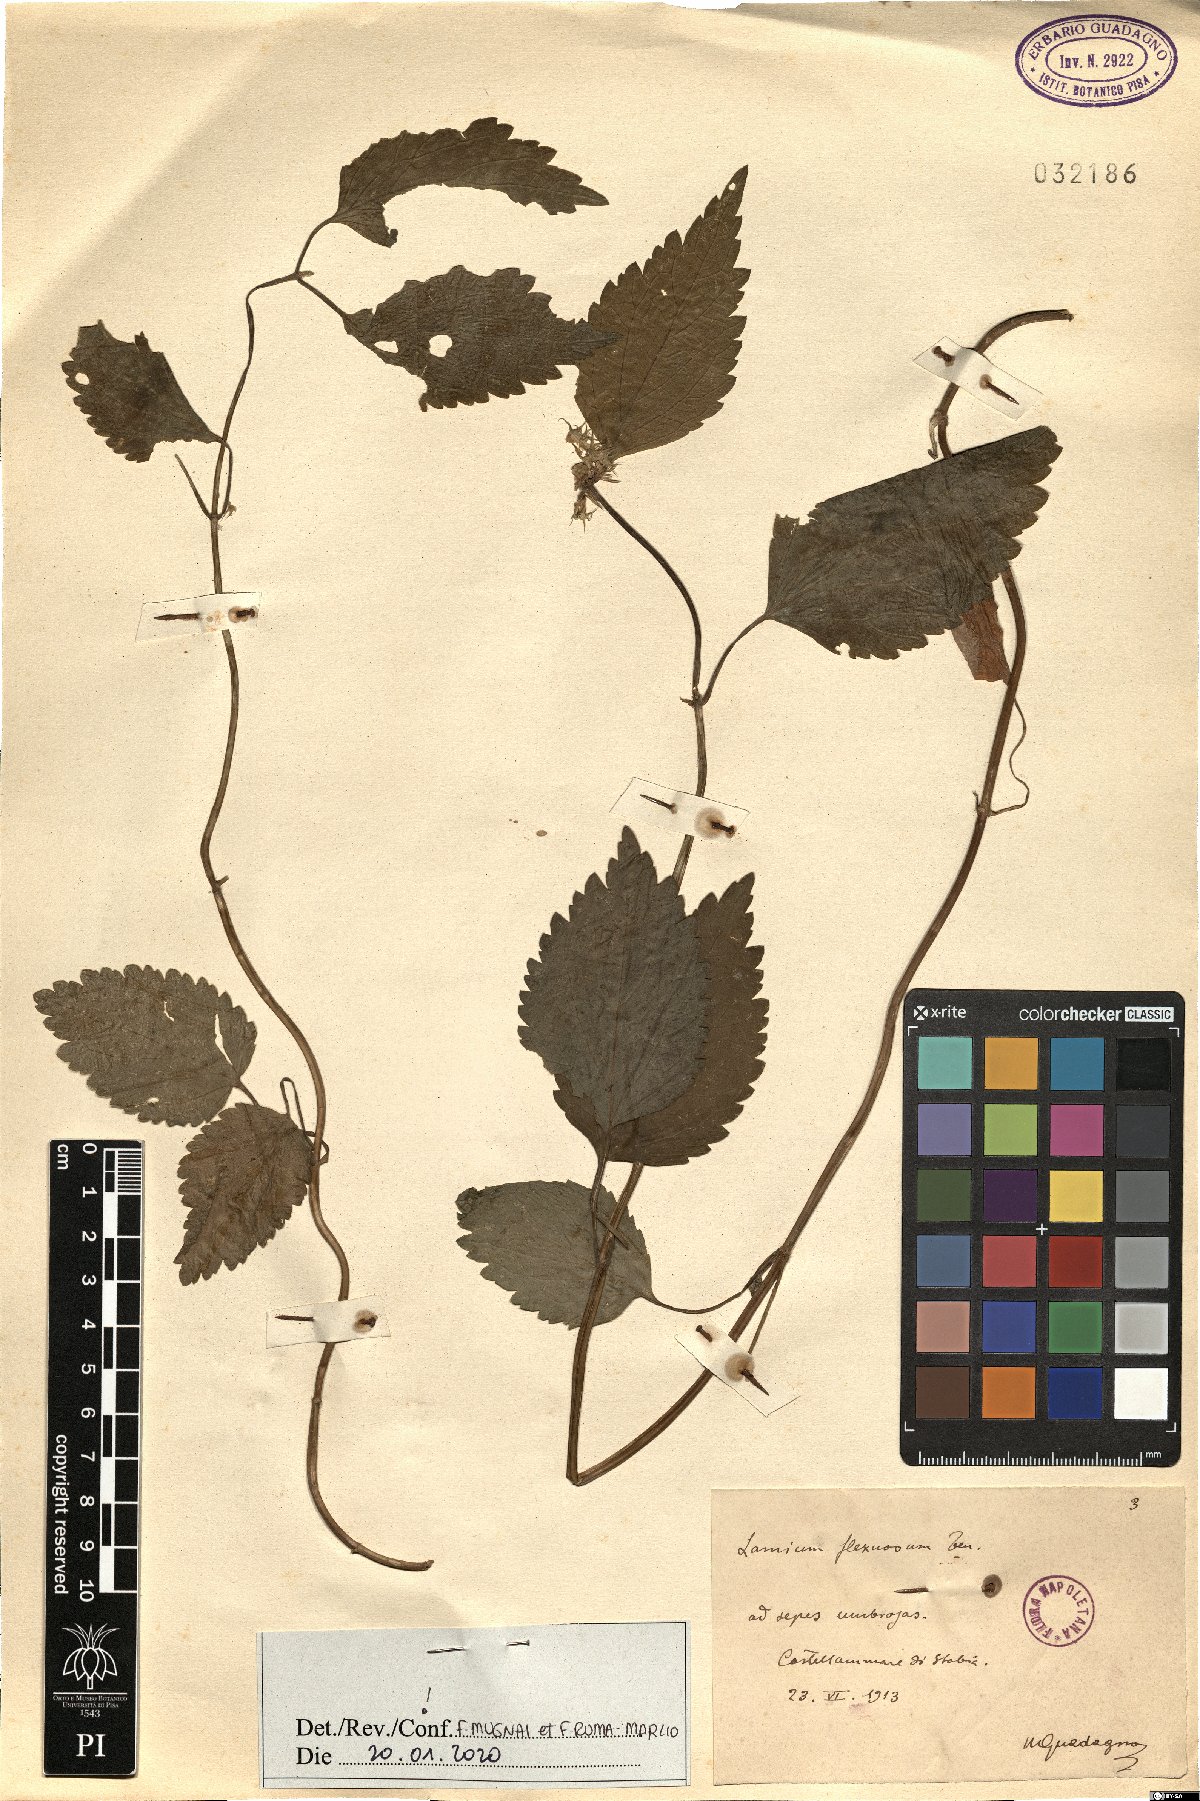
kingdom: Plantae
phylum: Tracheophyta
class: Magnoliopsida
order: Lamiales
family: Lamiaceae
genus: Lamium
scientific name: Lamium flexuosum
